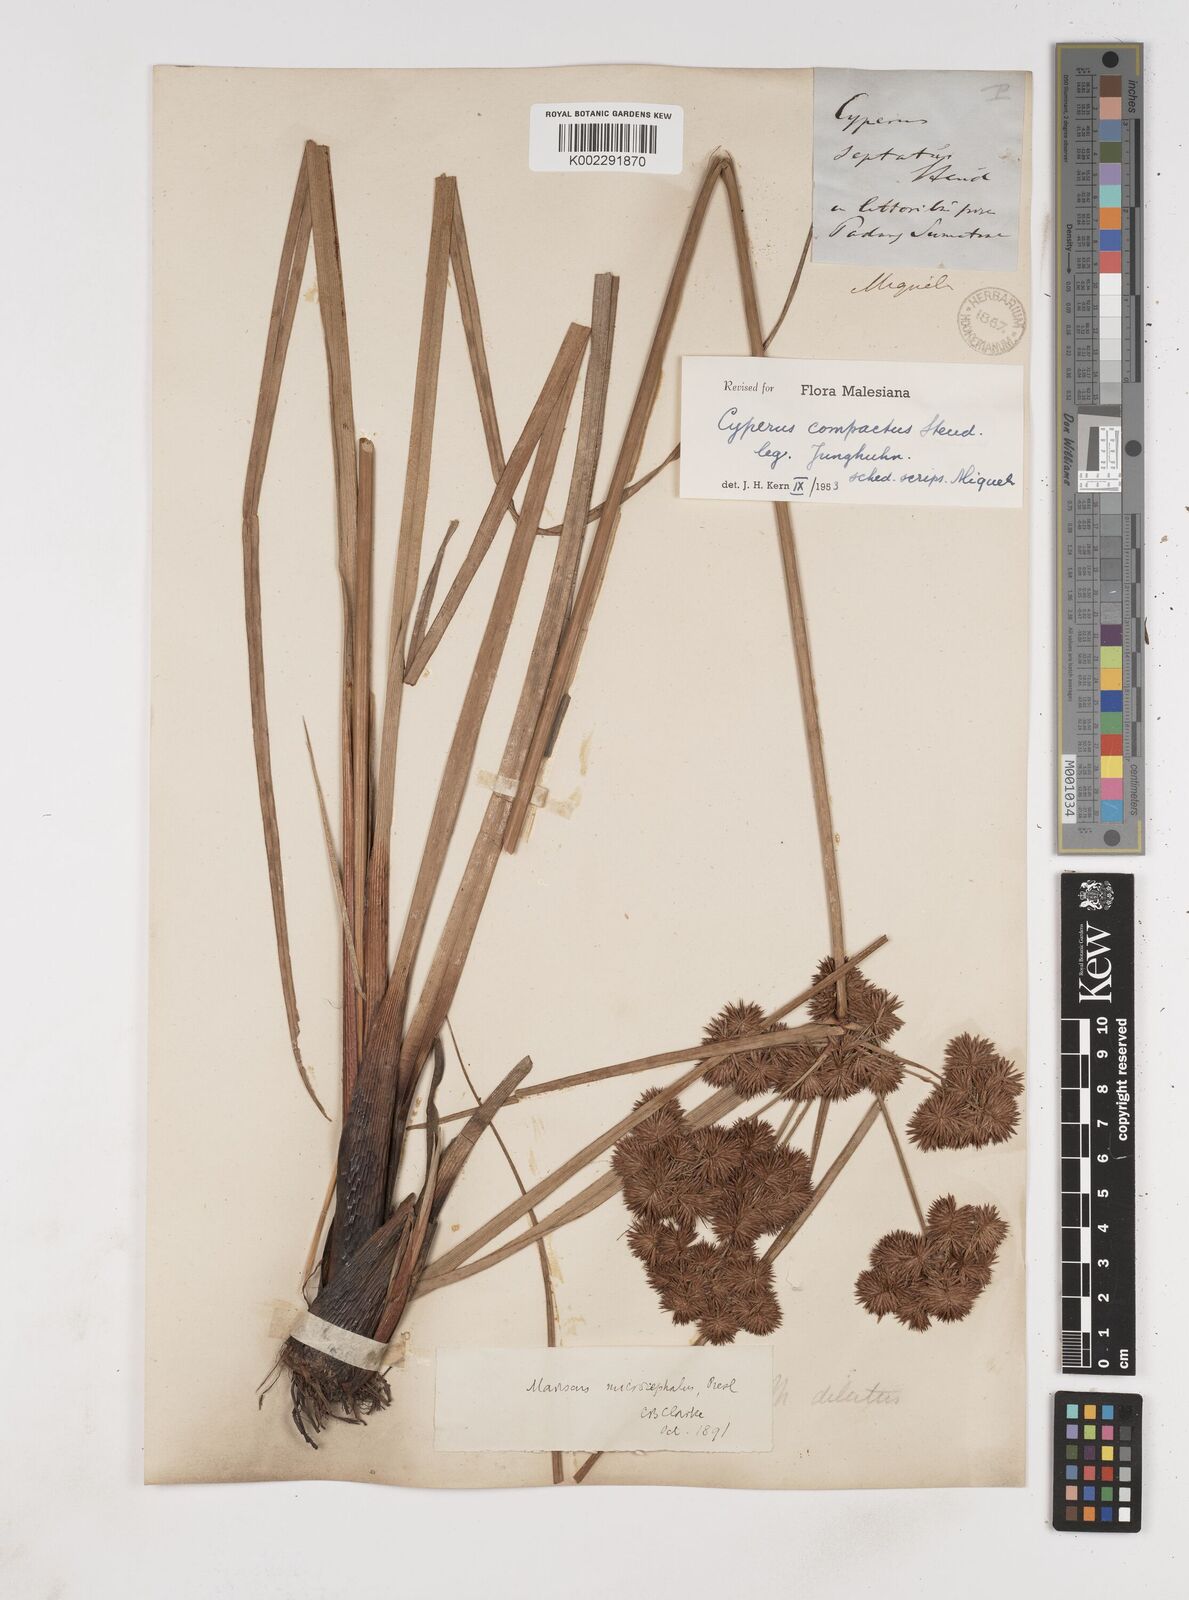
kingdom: Plantae
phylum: Tracheophyta
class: Liliopsida
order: Poales
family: Cyperaceae
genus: Cyperus
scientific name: Cyperus
